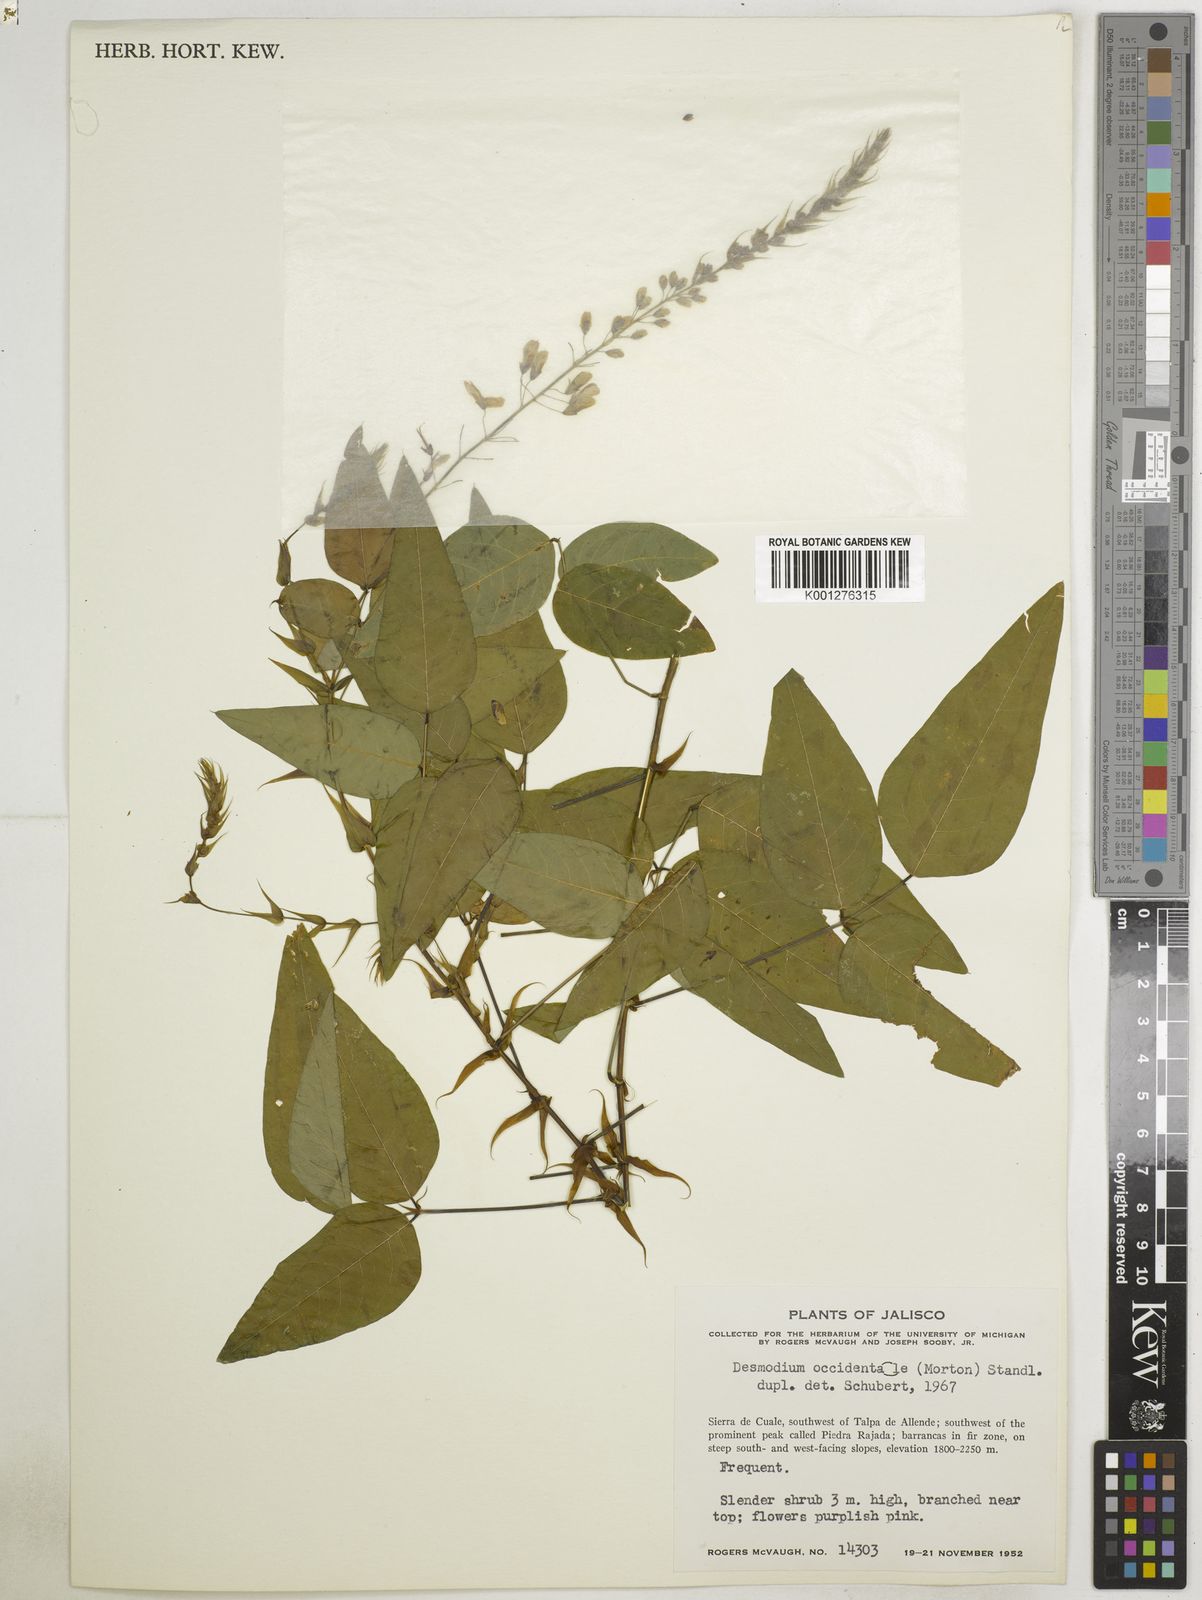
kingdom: Plantae
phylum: Tracheophyta
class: Magnoliopsida
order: Fabales
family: Fabaceae
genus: Desmodium
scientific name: Desmodium occidentale
